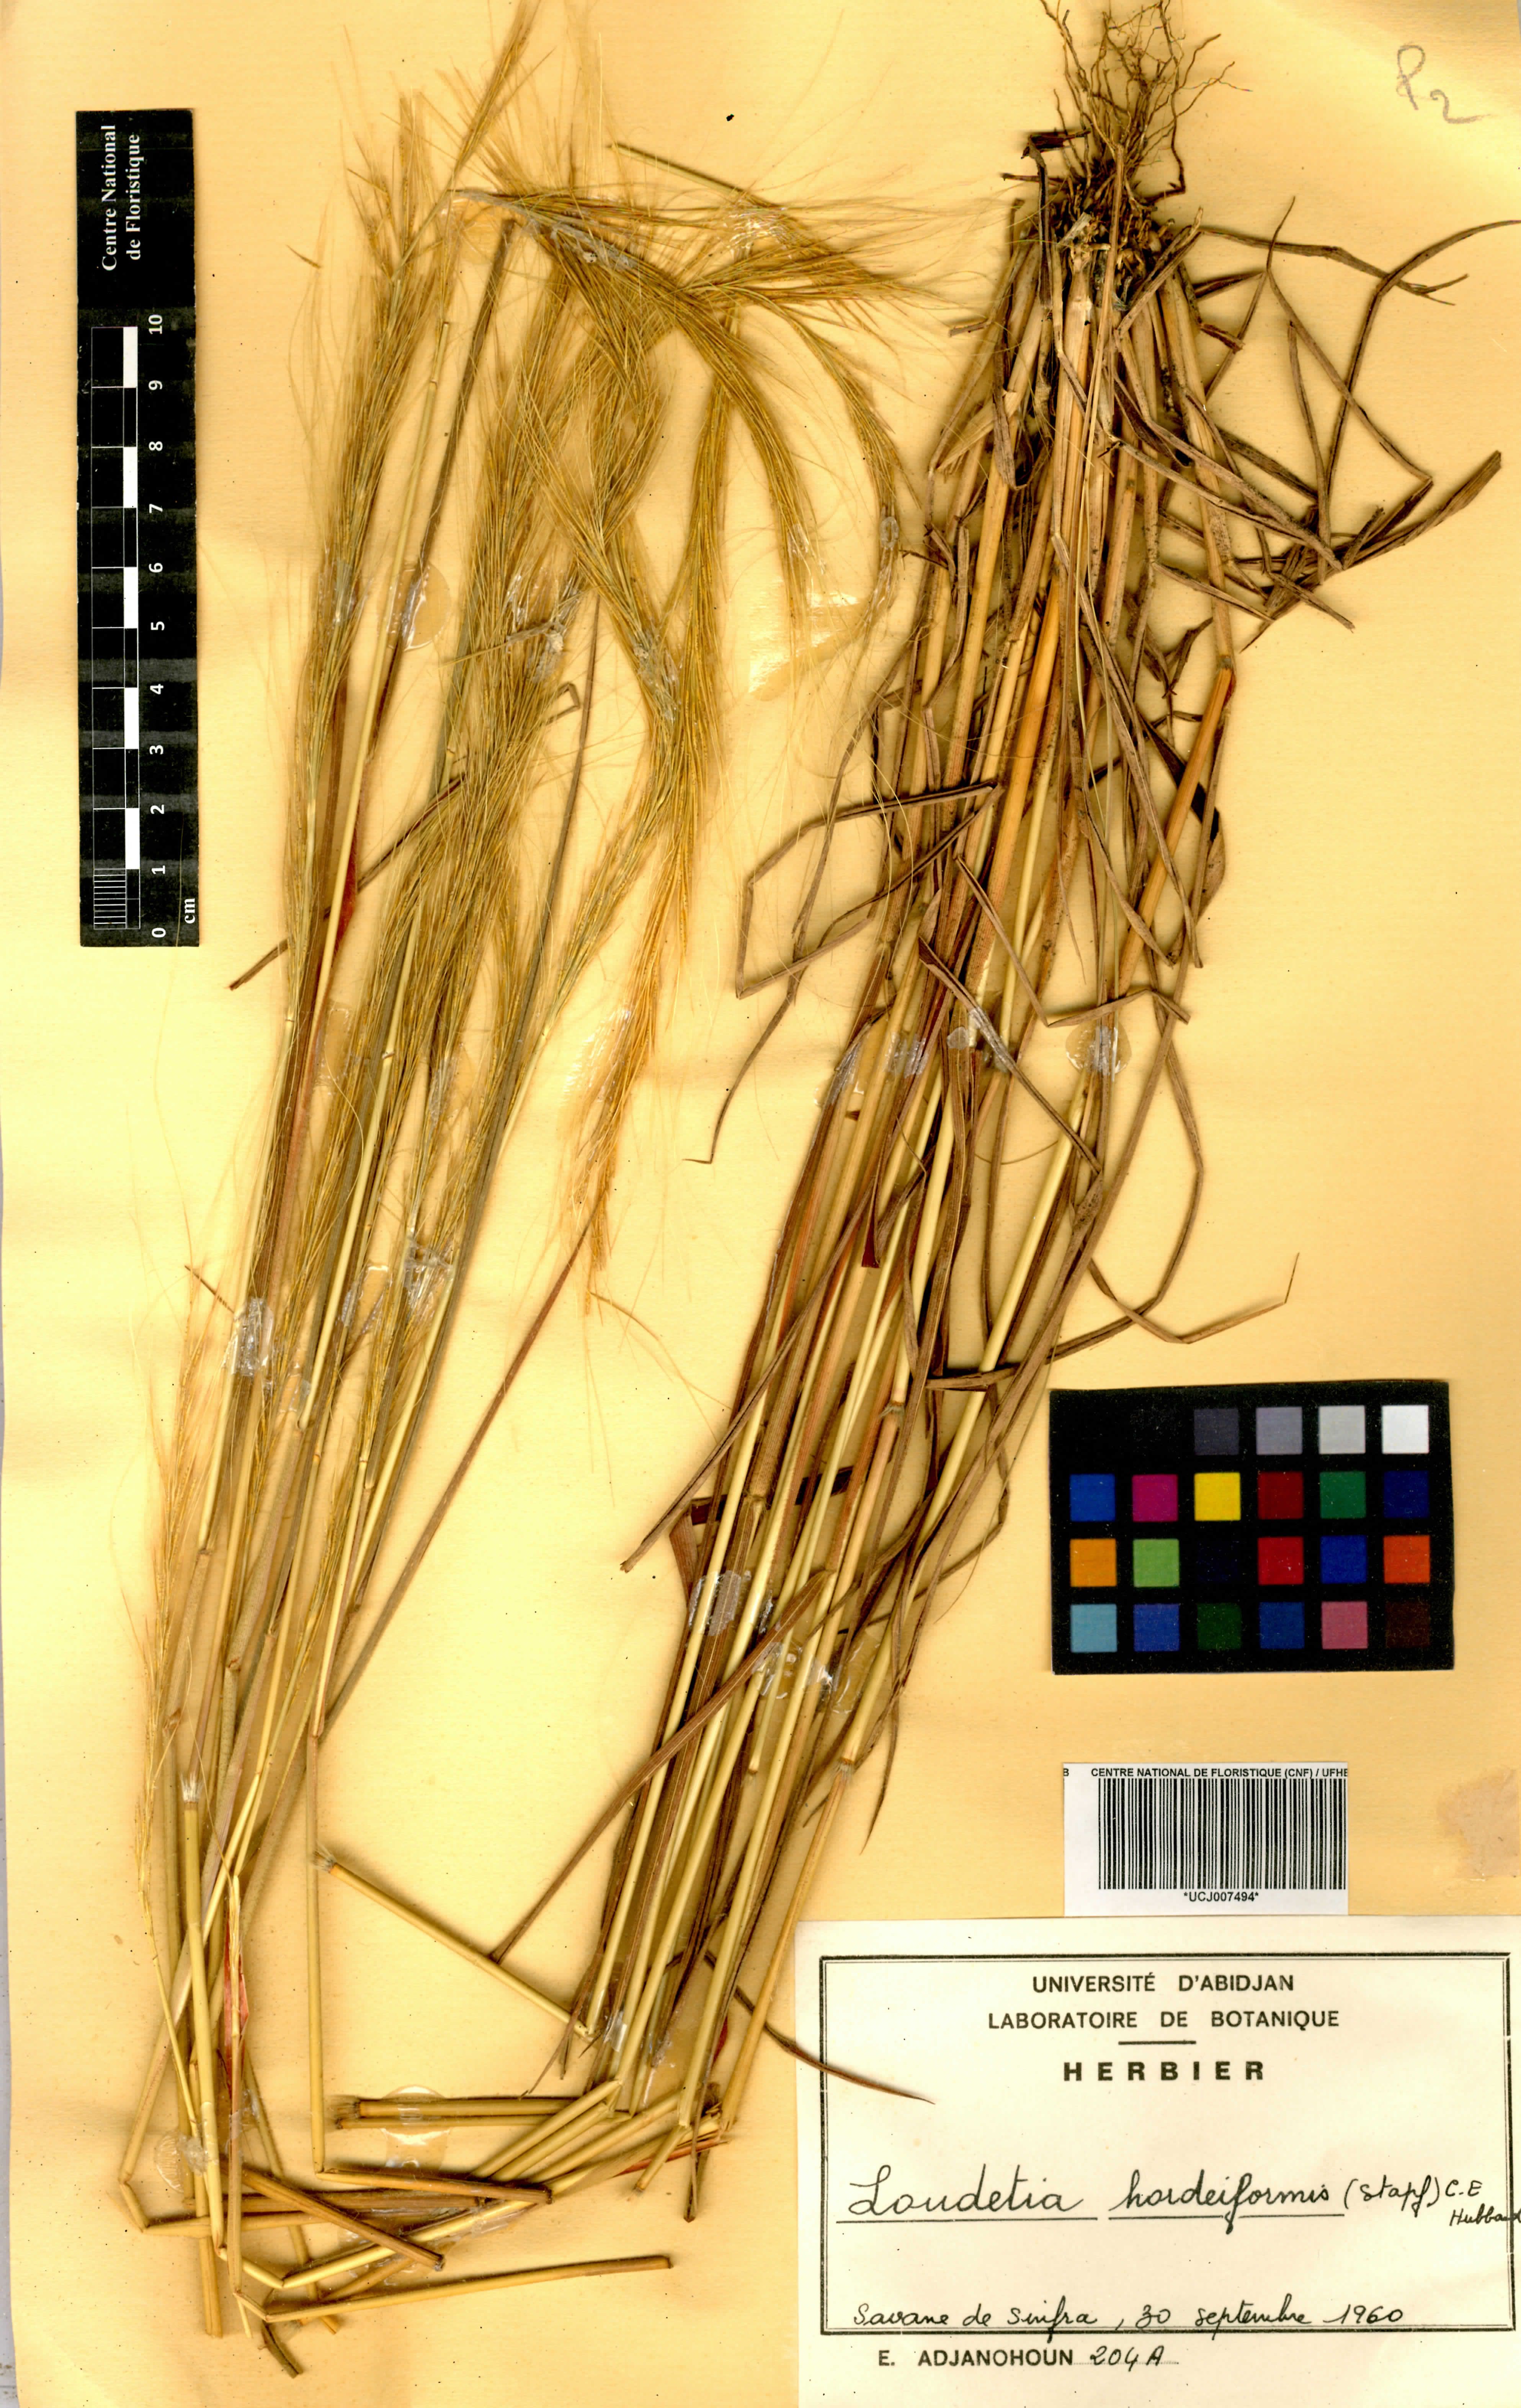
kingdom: Plantae
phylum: Tracheophyta
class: Liliopsida
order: Poales
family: Poaceae
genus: Loudetia
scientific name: Loudetia hordeiformis
